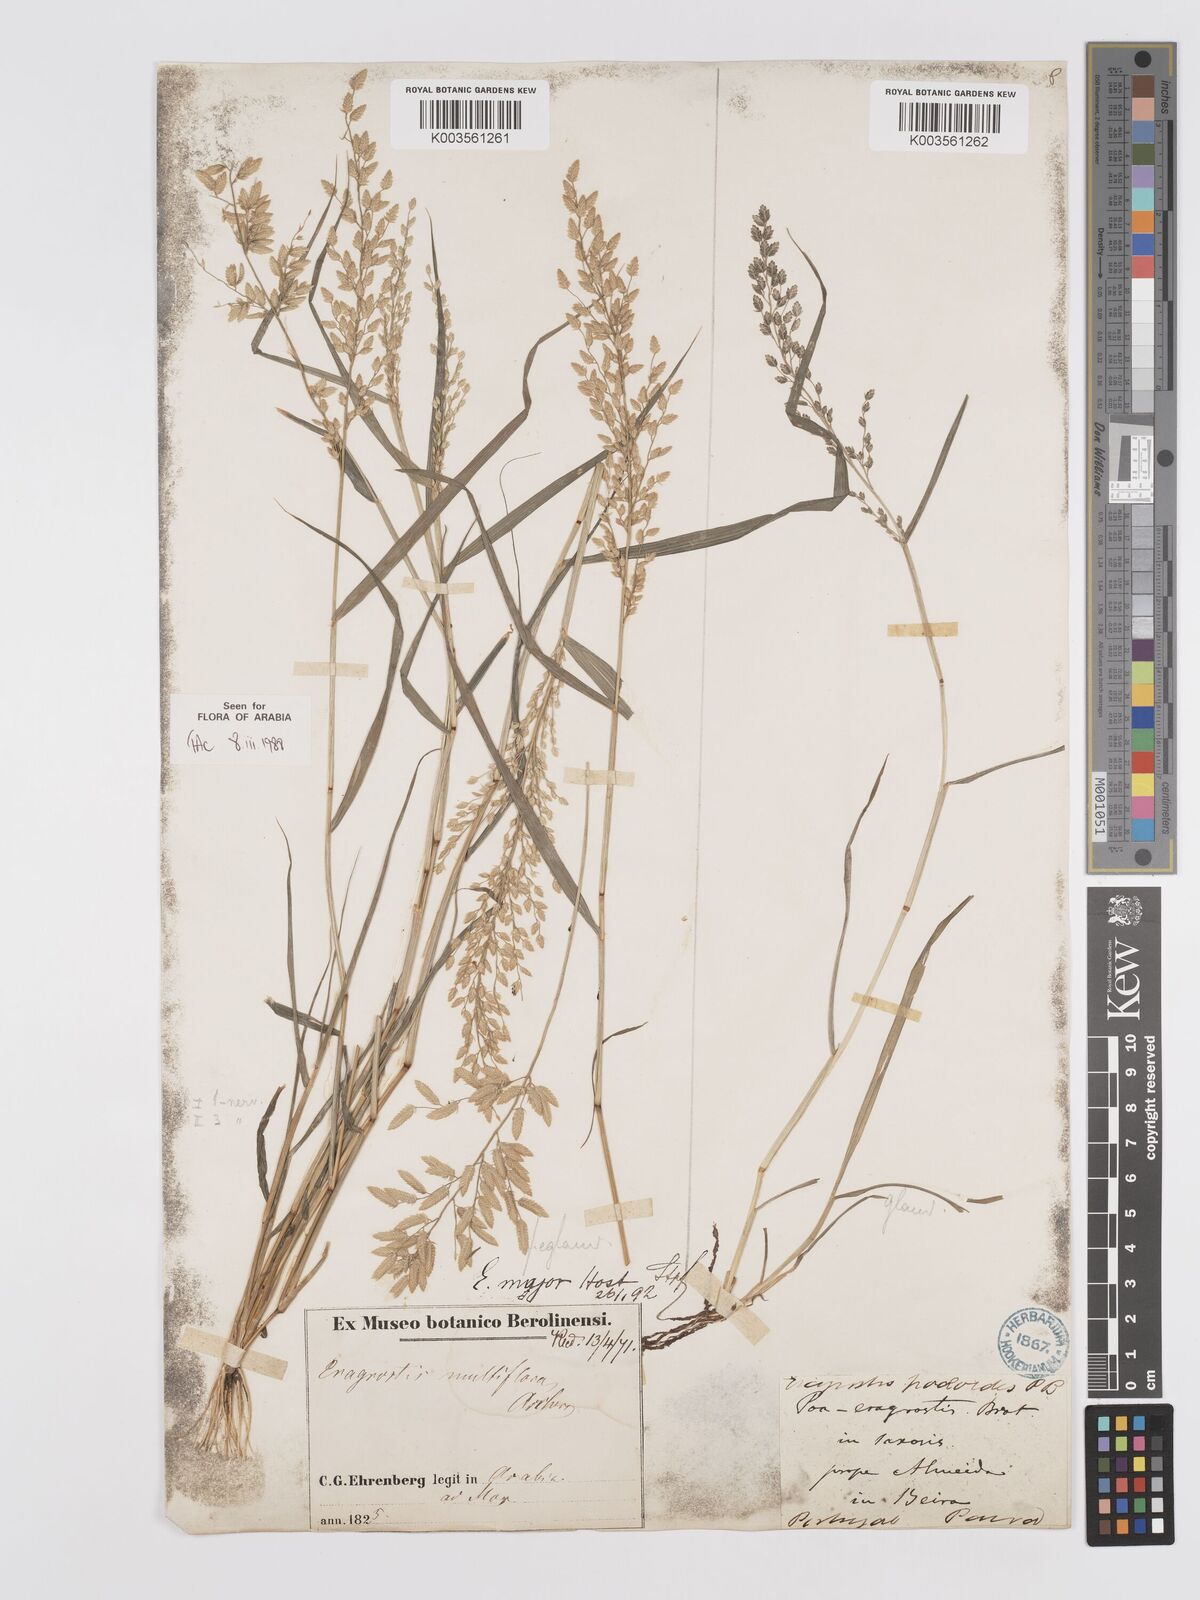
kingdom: Plantae
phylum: Tracheophyta
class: Liliopsida
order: Poales
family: Poaceae
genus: Eragrostis
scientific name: Eragrostis cilianensis
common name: Stinkgrass
